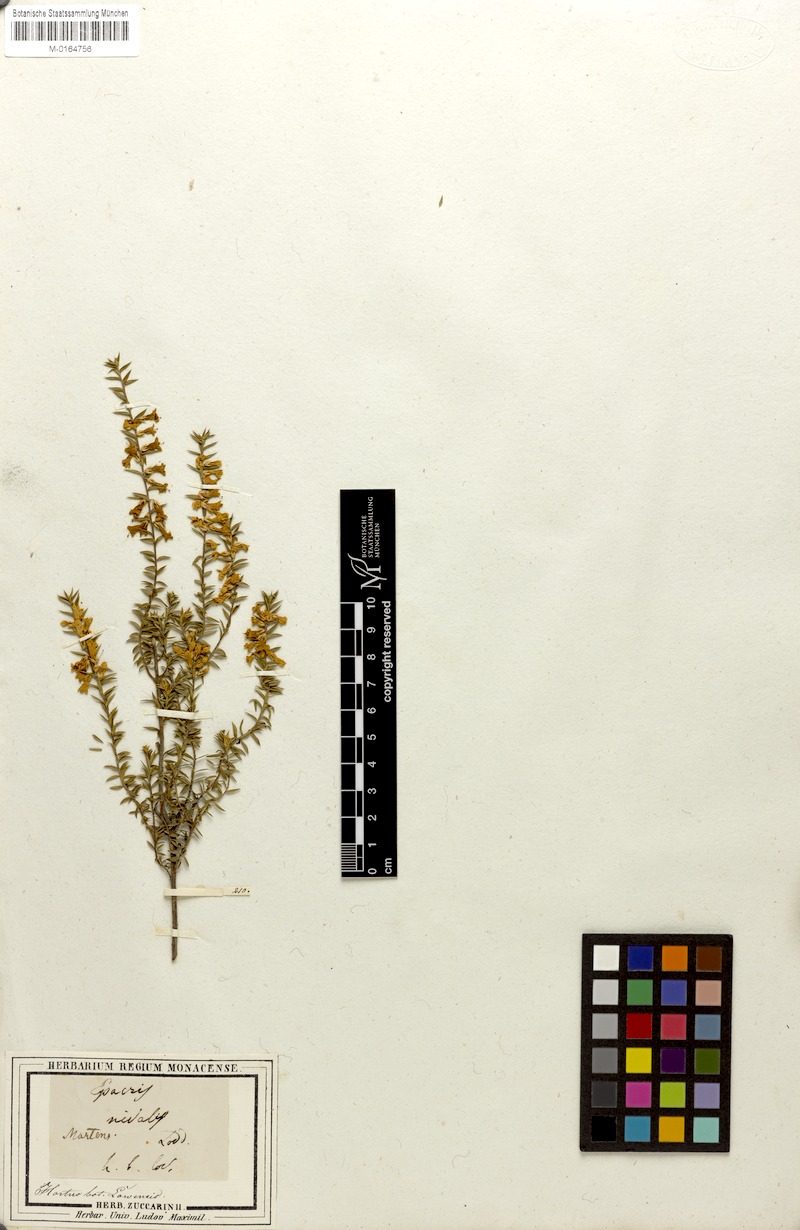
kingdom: Plantae
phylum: Tracheophyta
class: Magnoliopsida
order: Ericales
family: Ericaceae
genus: Epacris
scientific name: Epacris nivalis
